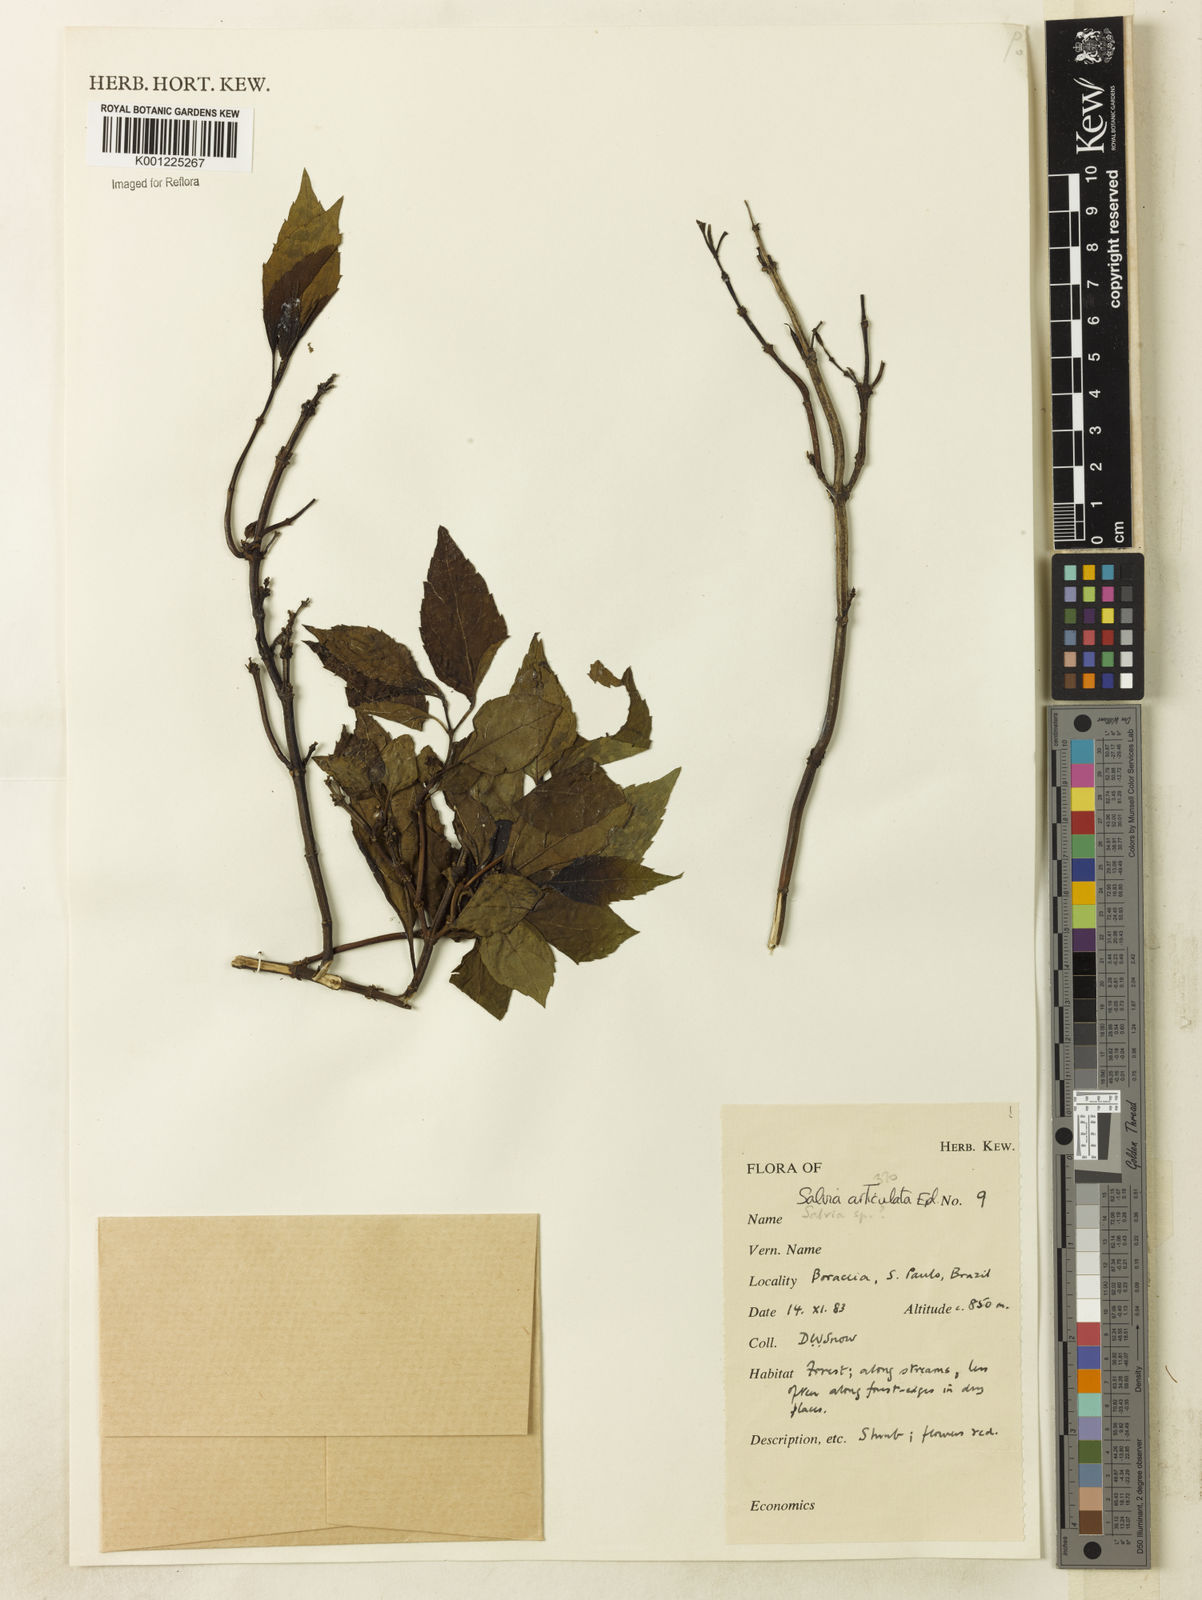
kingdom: Plantae
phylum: Tracheophyta
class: Magnoliopsida
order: Lamiales
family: Lamiaceae
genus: Salvia
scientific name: Salvia articulata
